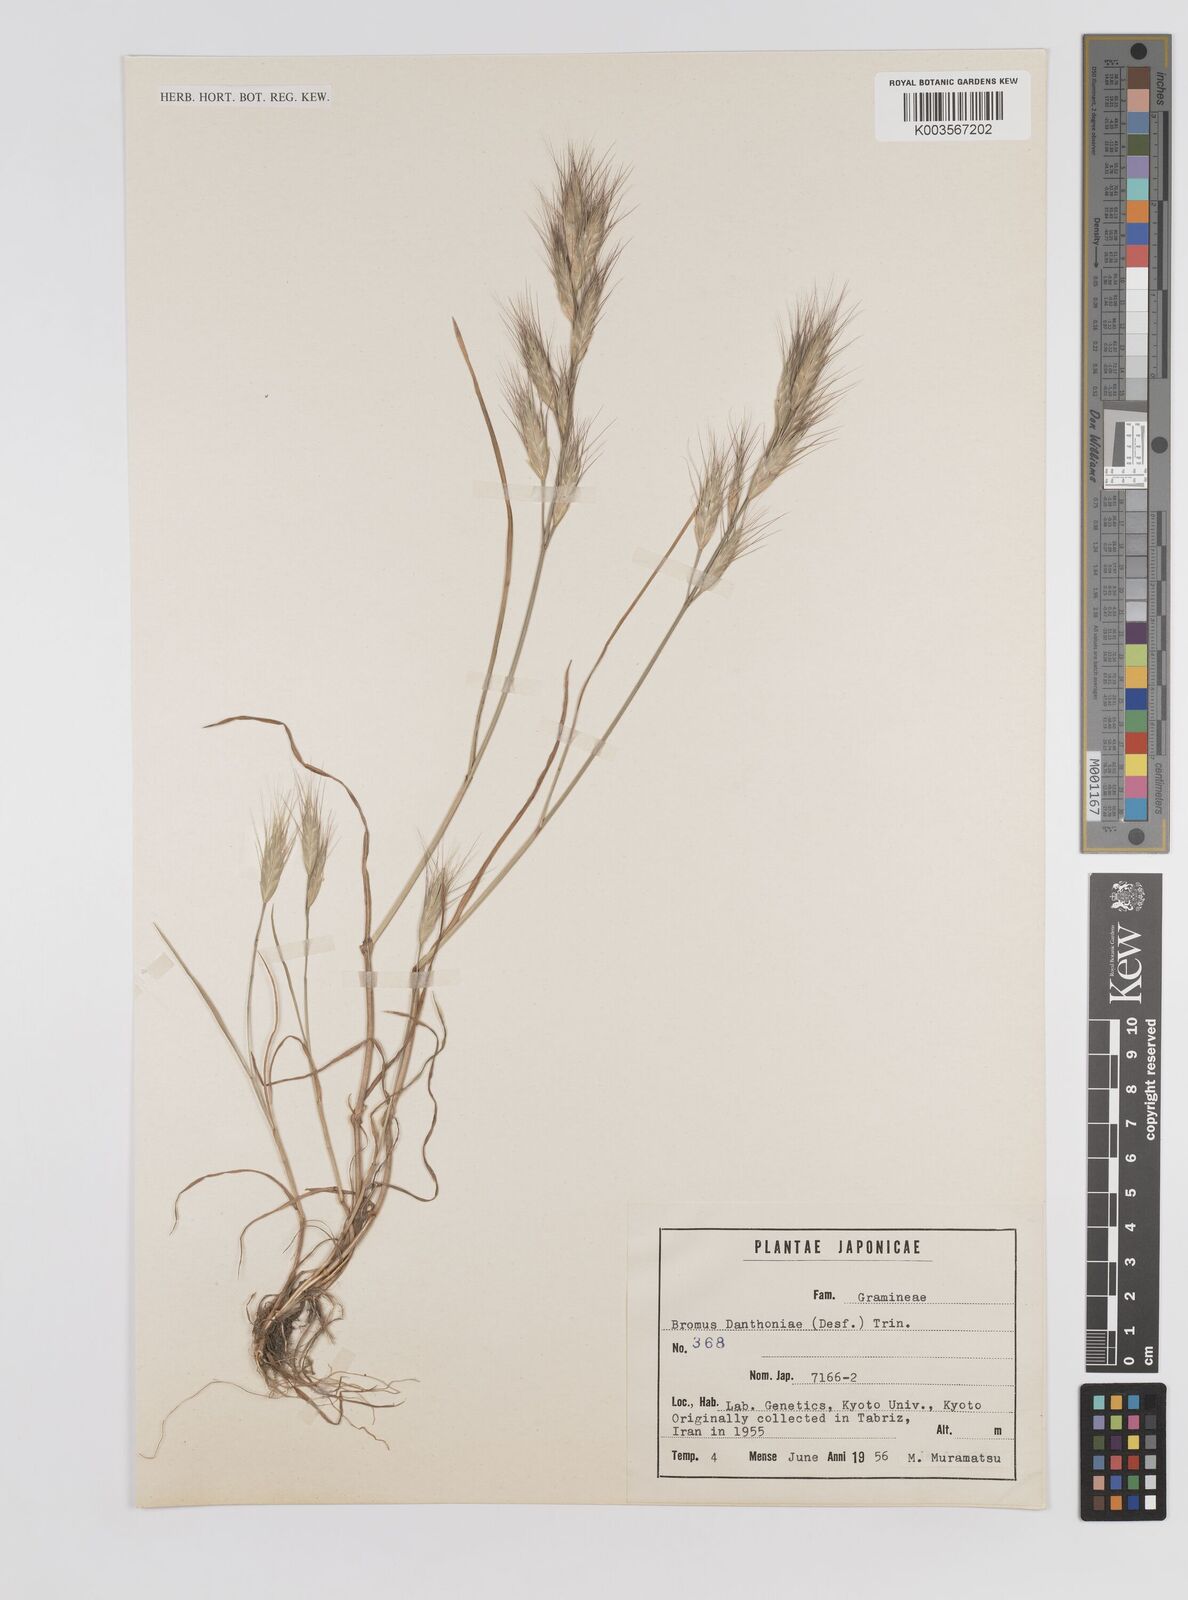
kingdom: Plantae
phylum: Tracheophyta
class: Liliopsida
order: Poales
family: Poaceae
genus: Bromus
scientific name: Bromus danthoniae
